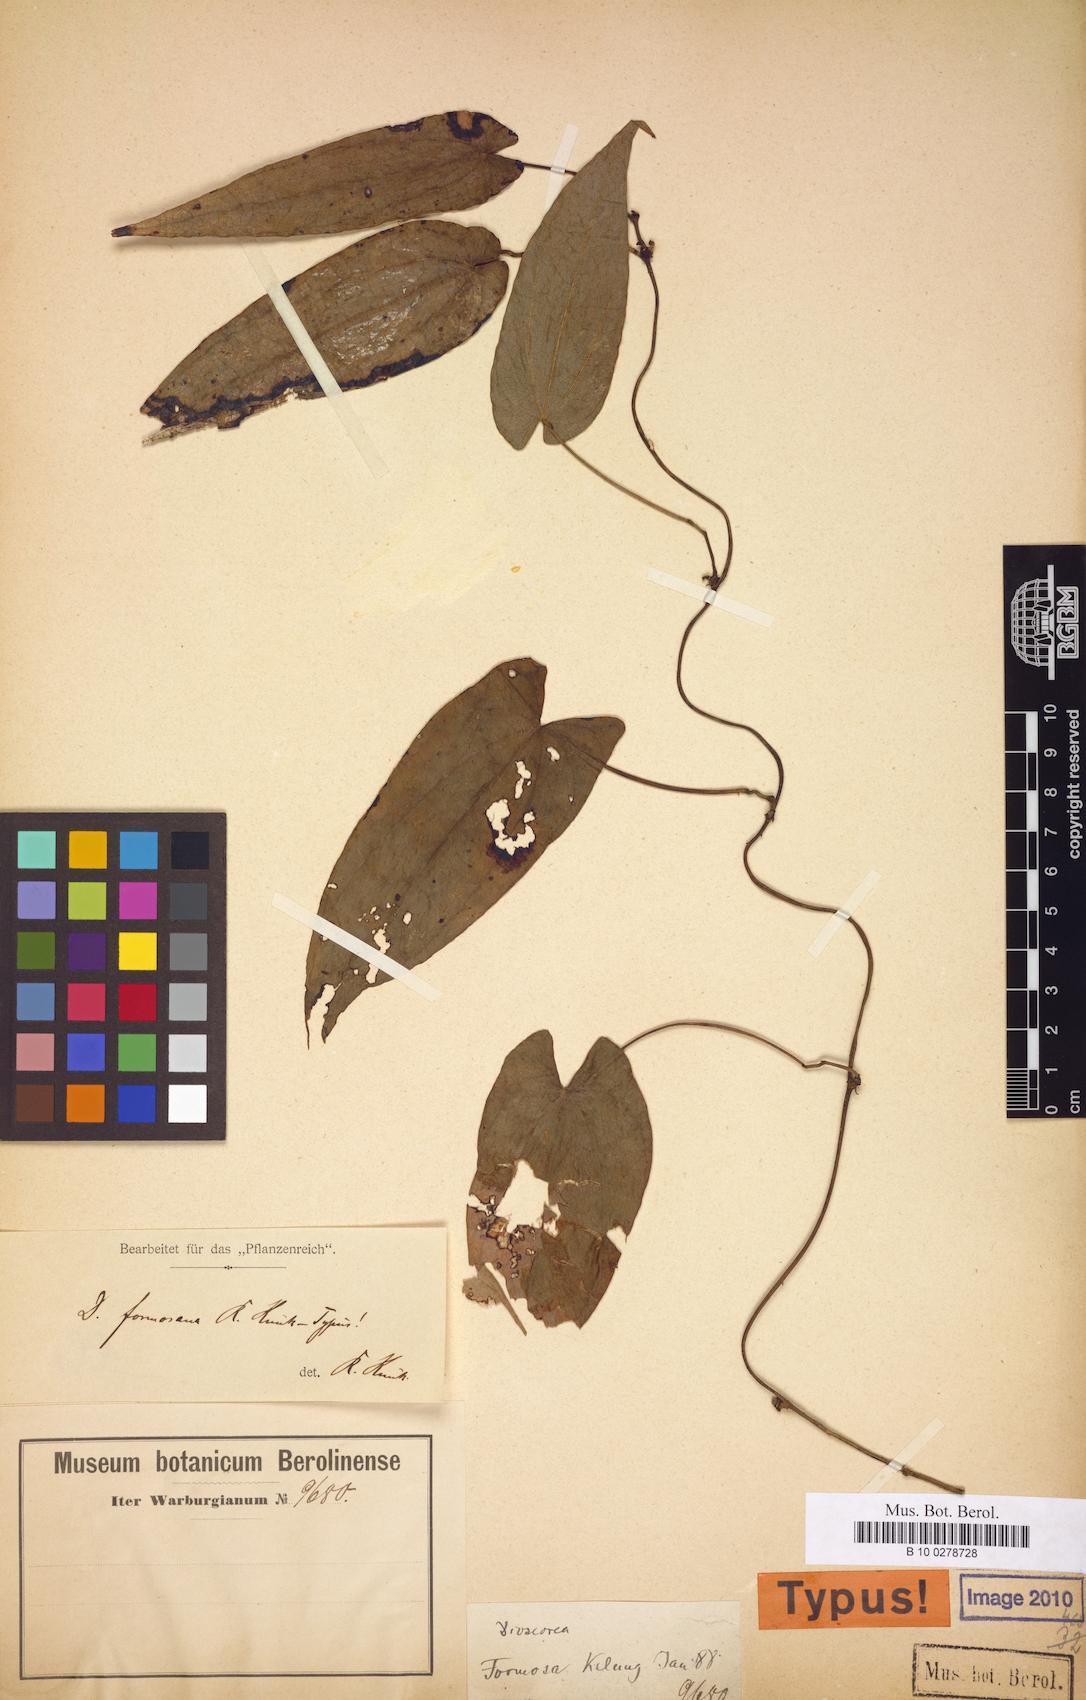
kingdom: Plantae
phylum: Tracheophyta
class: Liliopsida
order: Dioscoreales
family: Dioscoreaceae
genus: Dioscorea
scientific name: Dioscorea formosana
